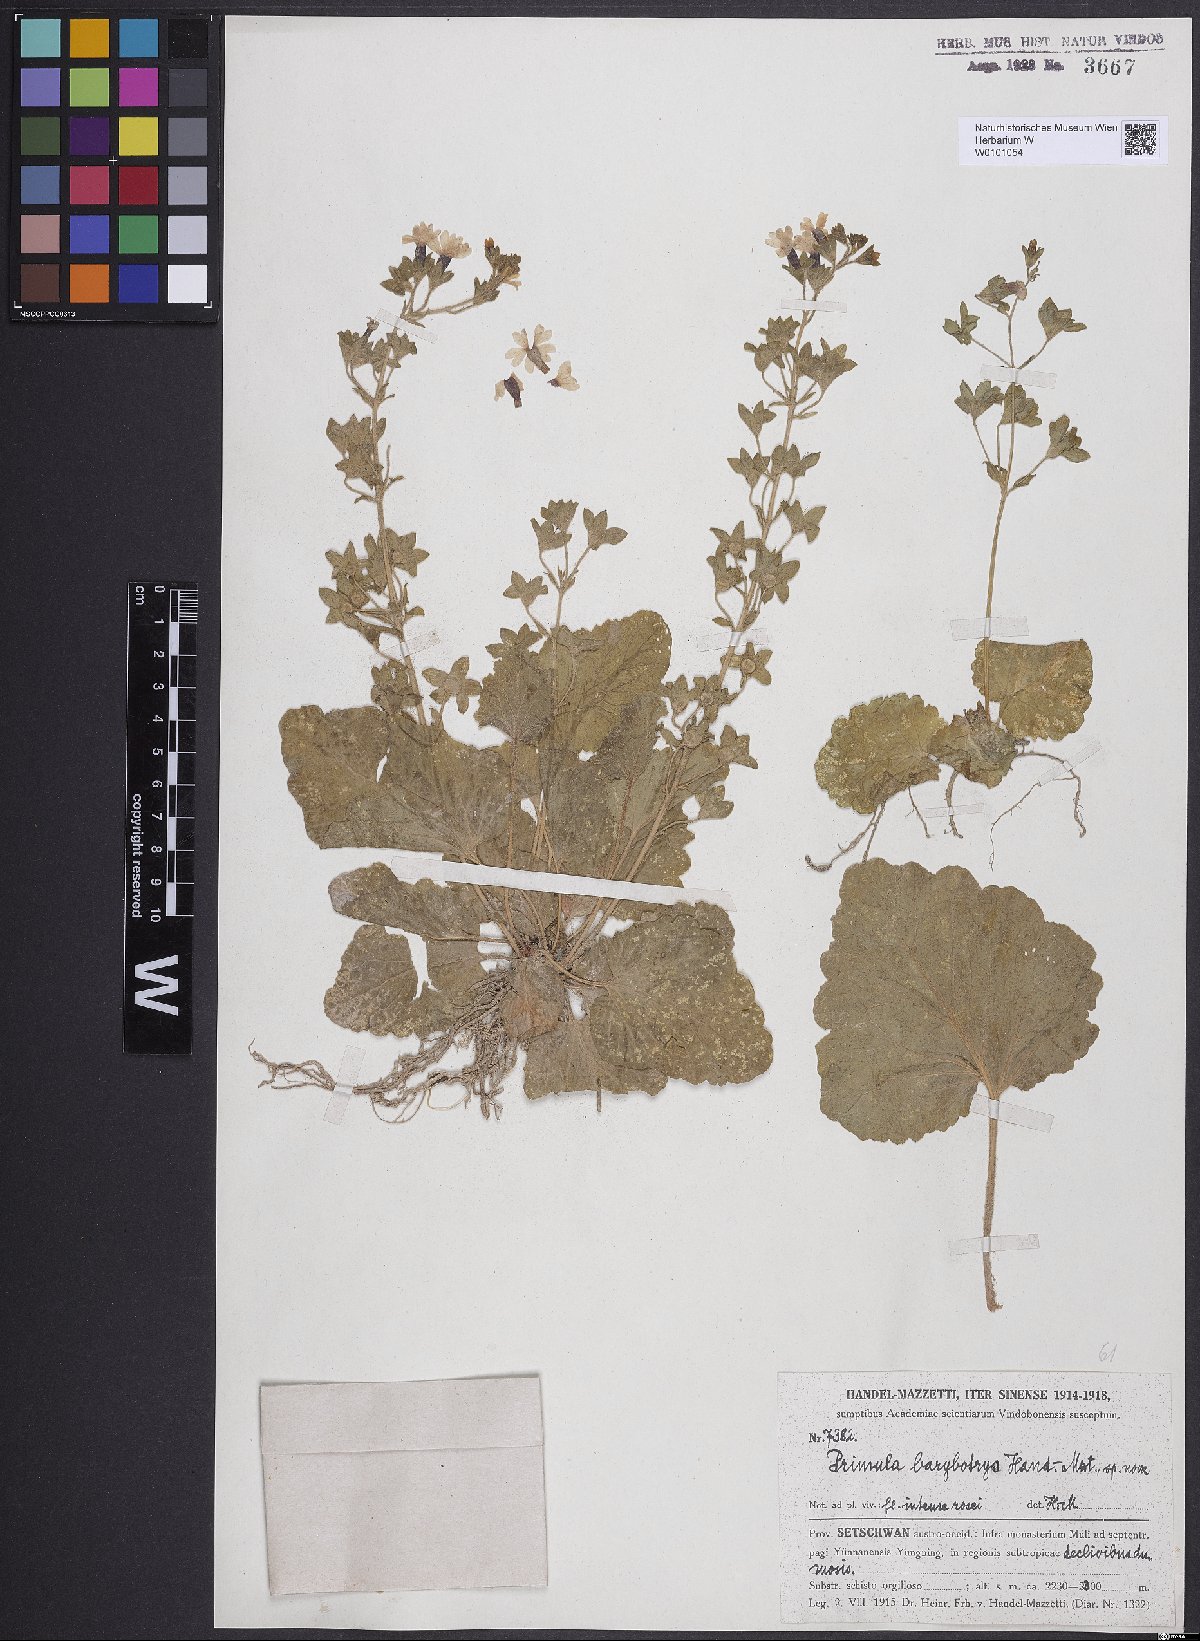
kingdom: Plantae
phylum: Tracheophyta
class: Magnoliopsida
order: Ericales
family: Primulaceae
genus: Primula
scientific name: Primula malvacea
